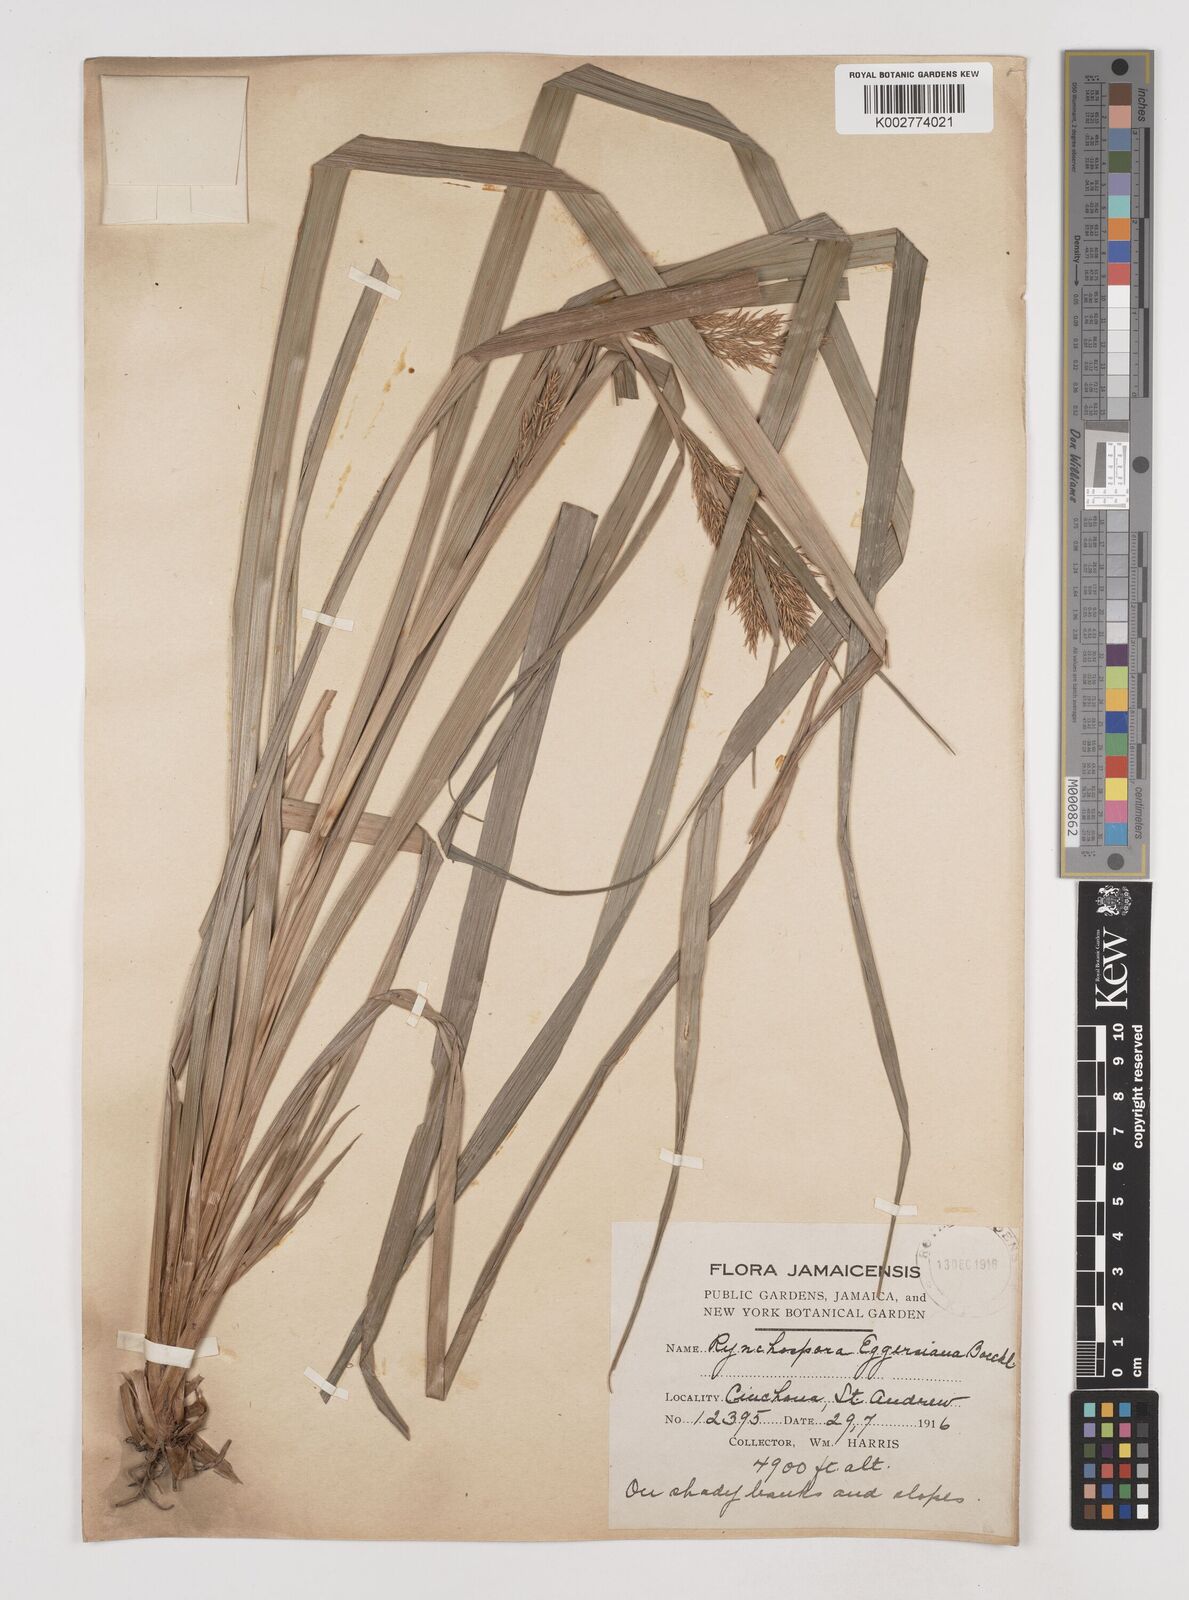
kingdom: Plantae
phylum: Tracheophyta
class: Liliopsida
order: Poales
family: Cyperaceae
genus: Rhynchospora
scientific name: Rhynchospora longiflora
